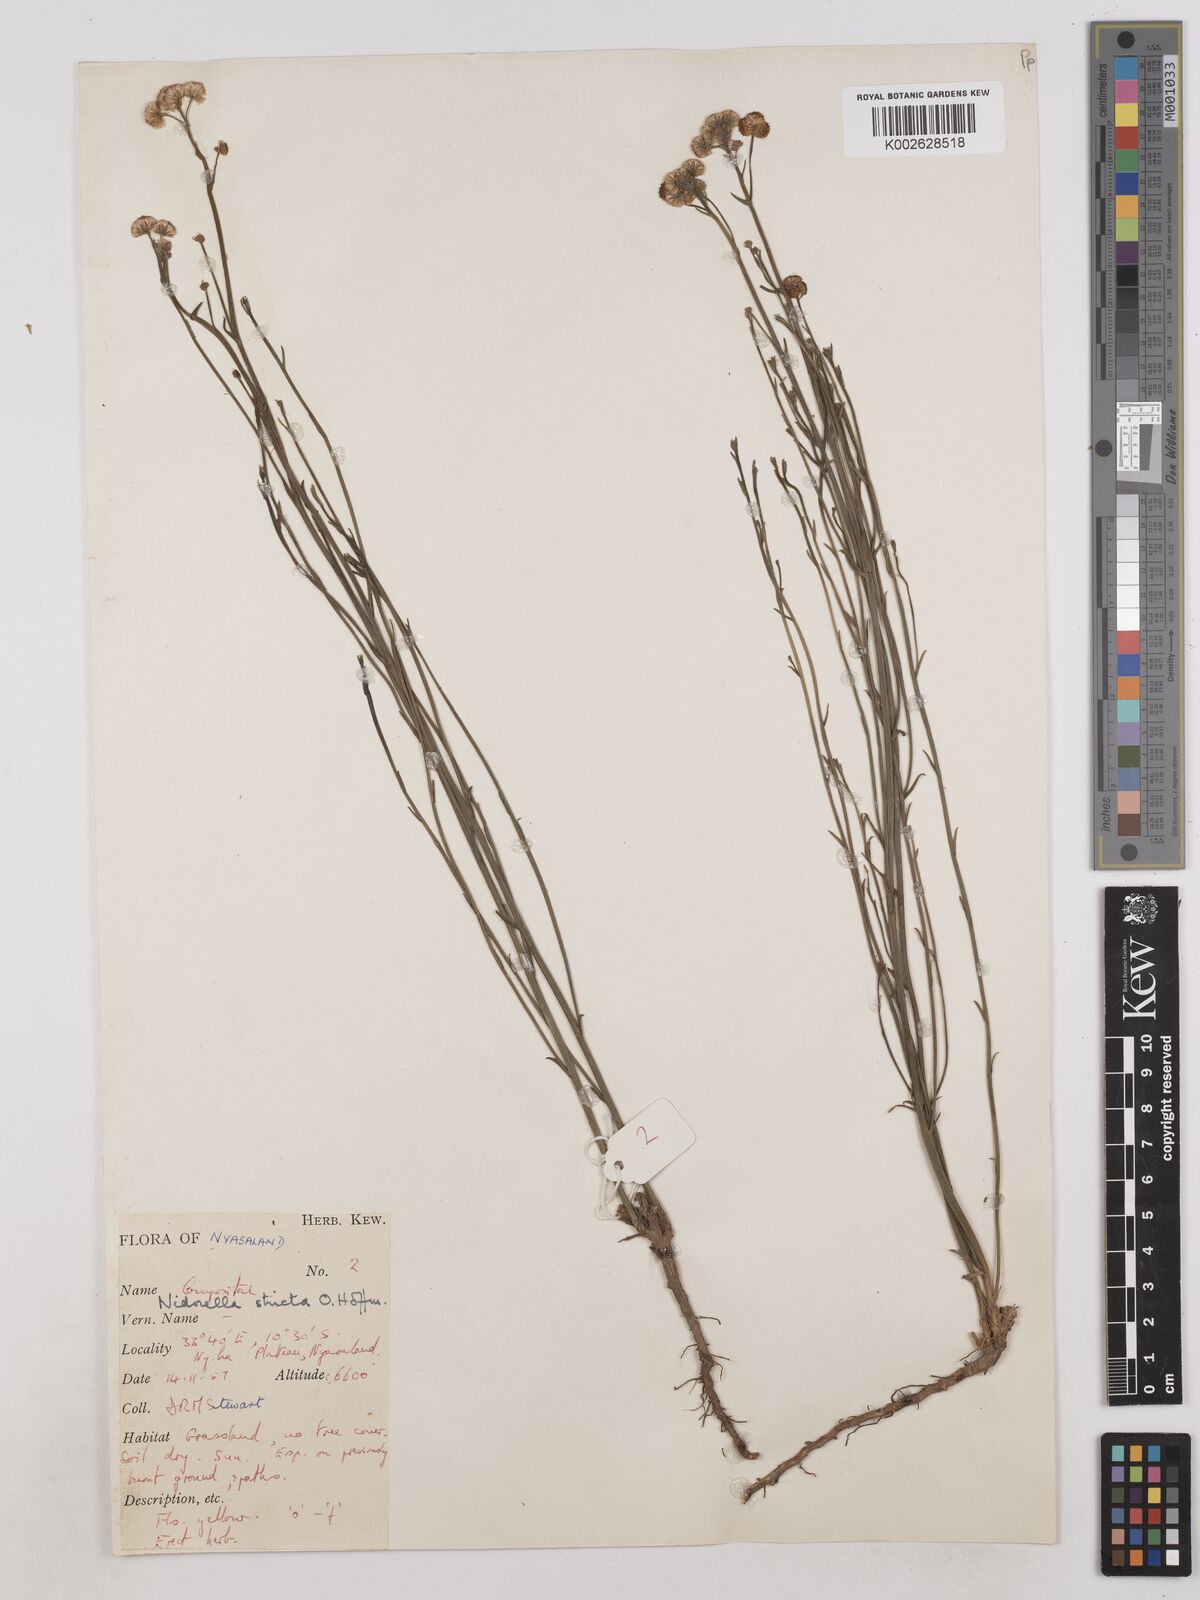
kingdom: Plantae
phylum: Tracheophyta
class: Magnoliopsida
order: Asterales
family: Asteraceae
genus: Nidorella
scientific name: Nidorella spartioides
